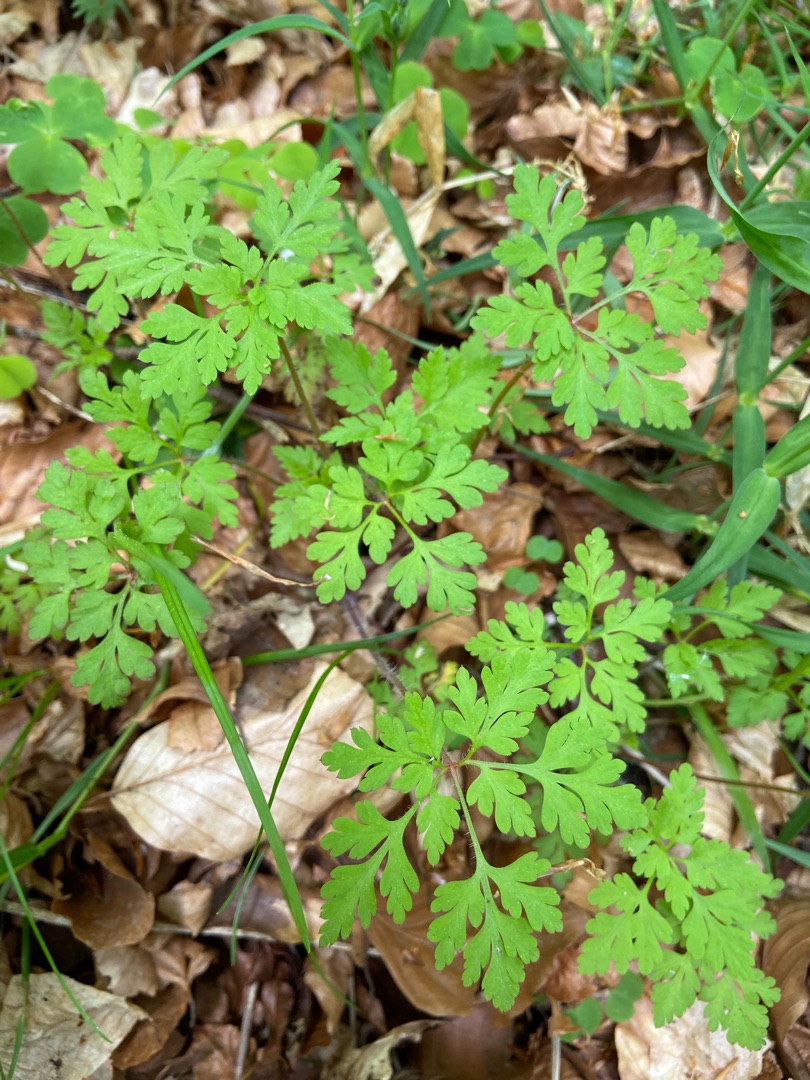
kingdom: Plantae
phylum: Tracheophyta
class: Magnoliopsida
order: Geraniales
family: Geraniaceae
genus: Geranium
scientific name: Geranium robertianum
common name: Stinkende storkenæb
